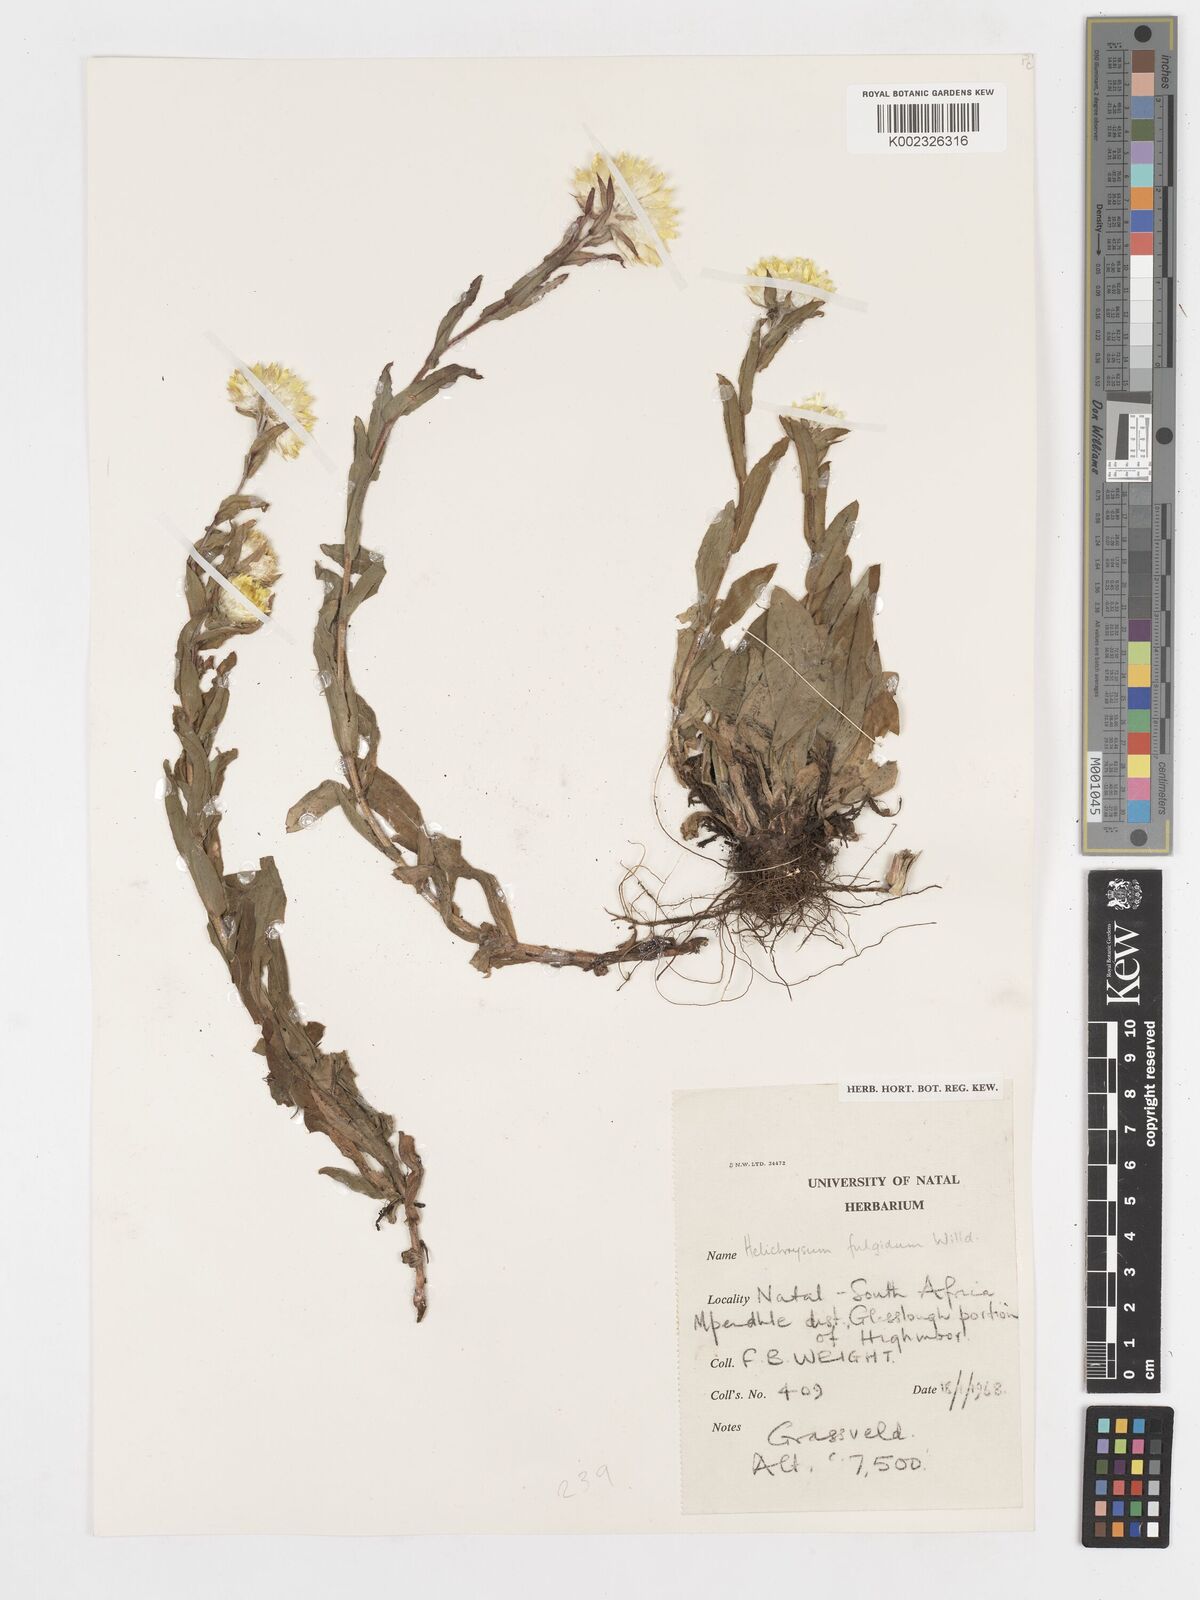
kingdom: Plantae
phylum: Tracheophyta
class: Magnoliopsida
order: Asterales
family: Asteraceae
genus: Helichrysum
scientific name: Helichrysum aureum
